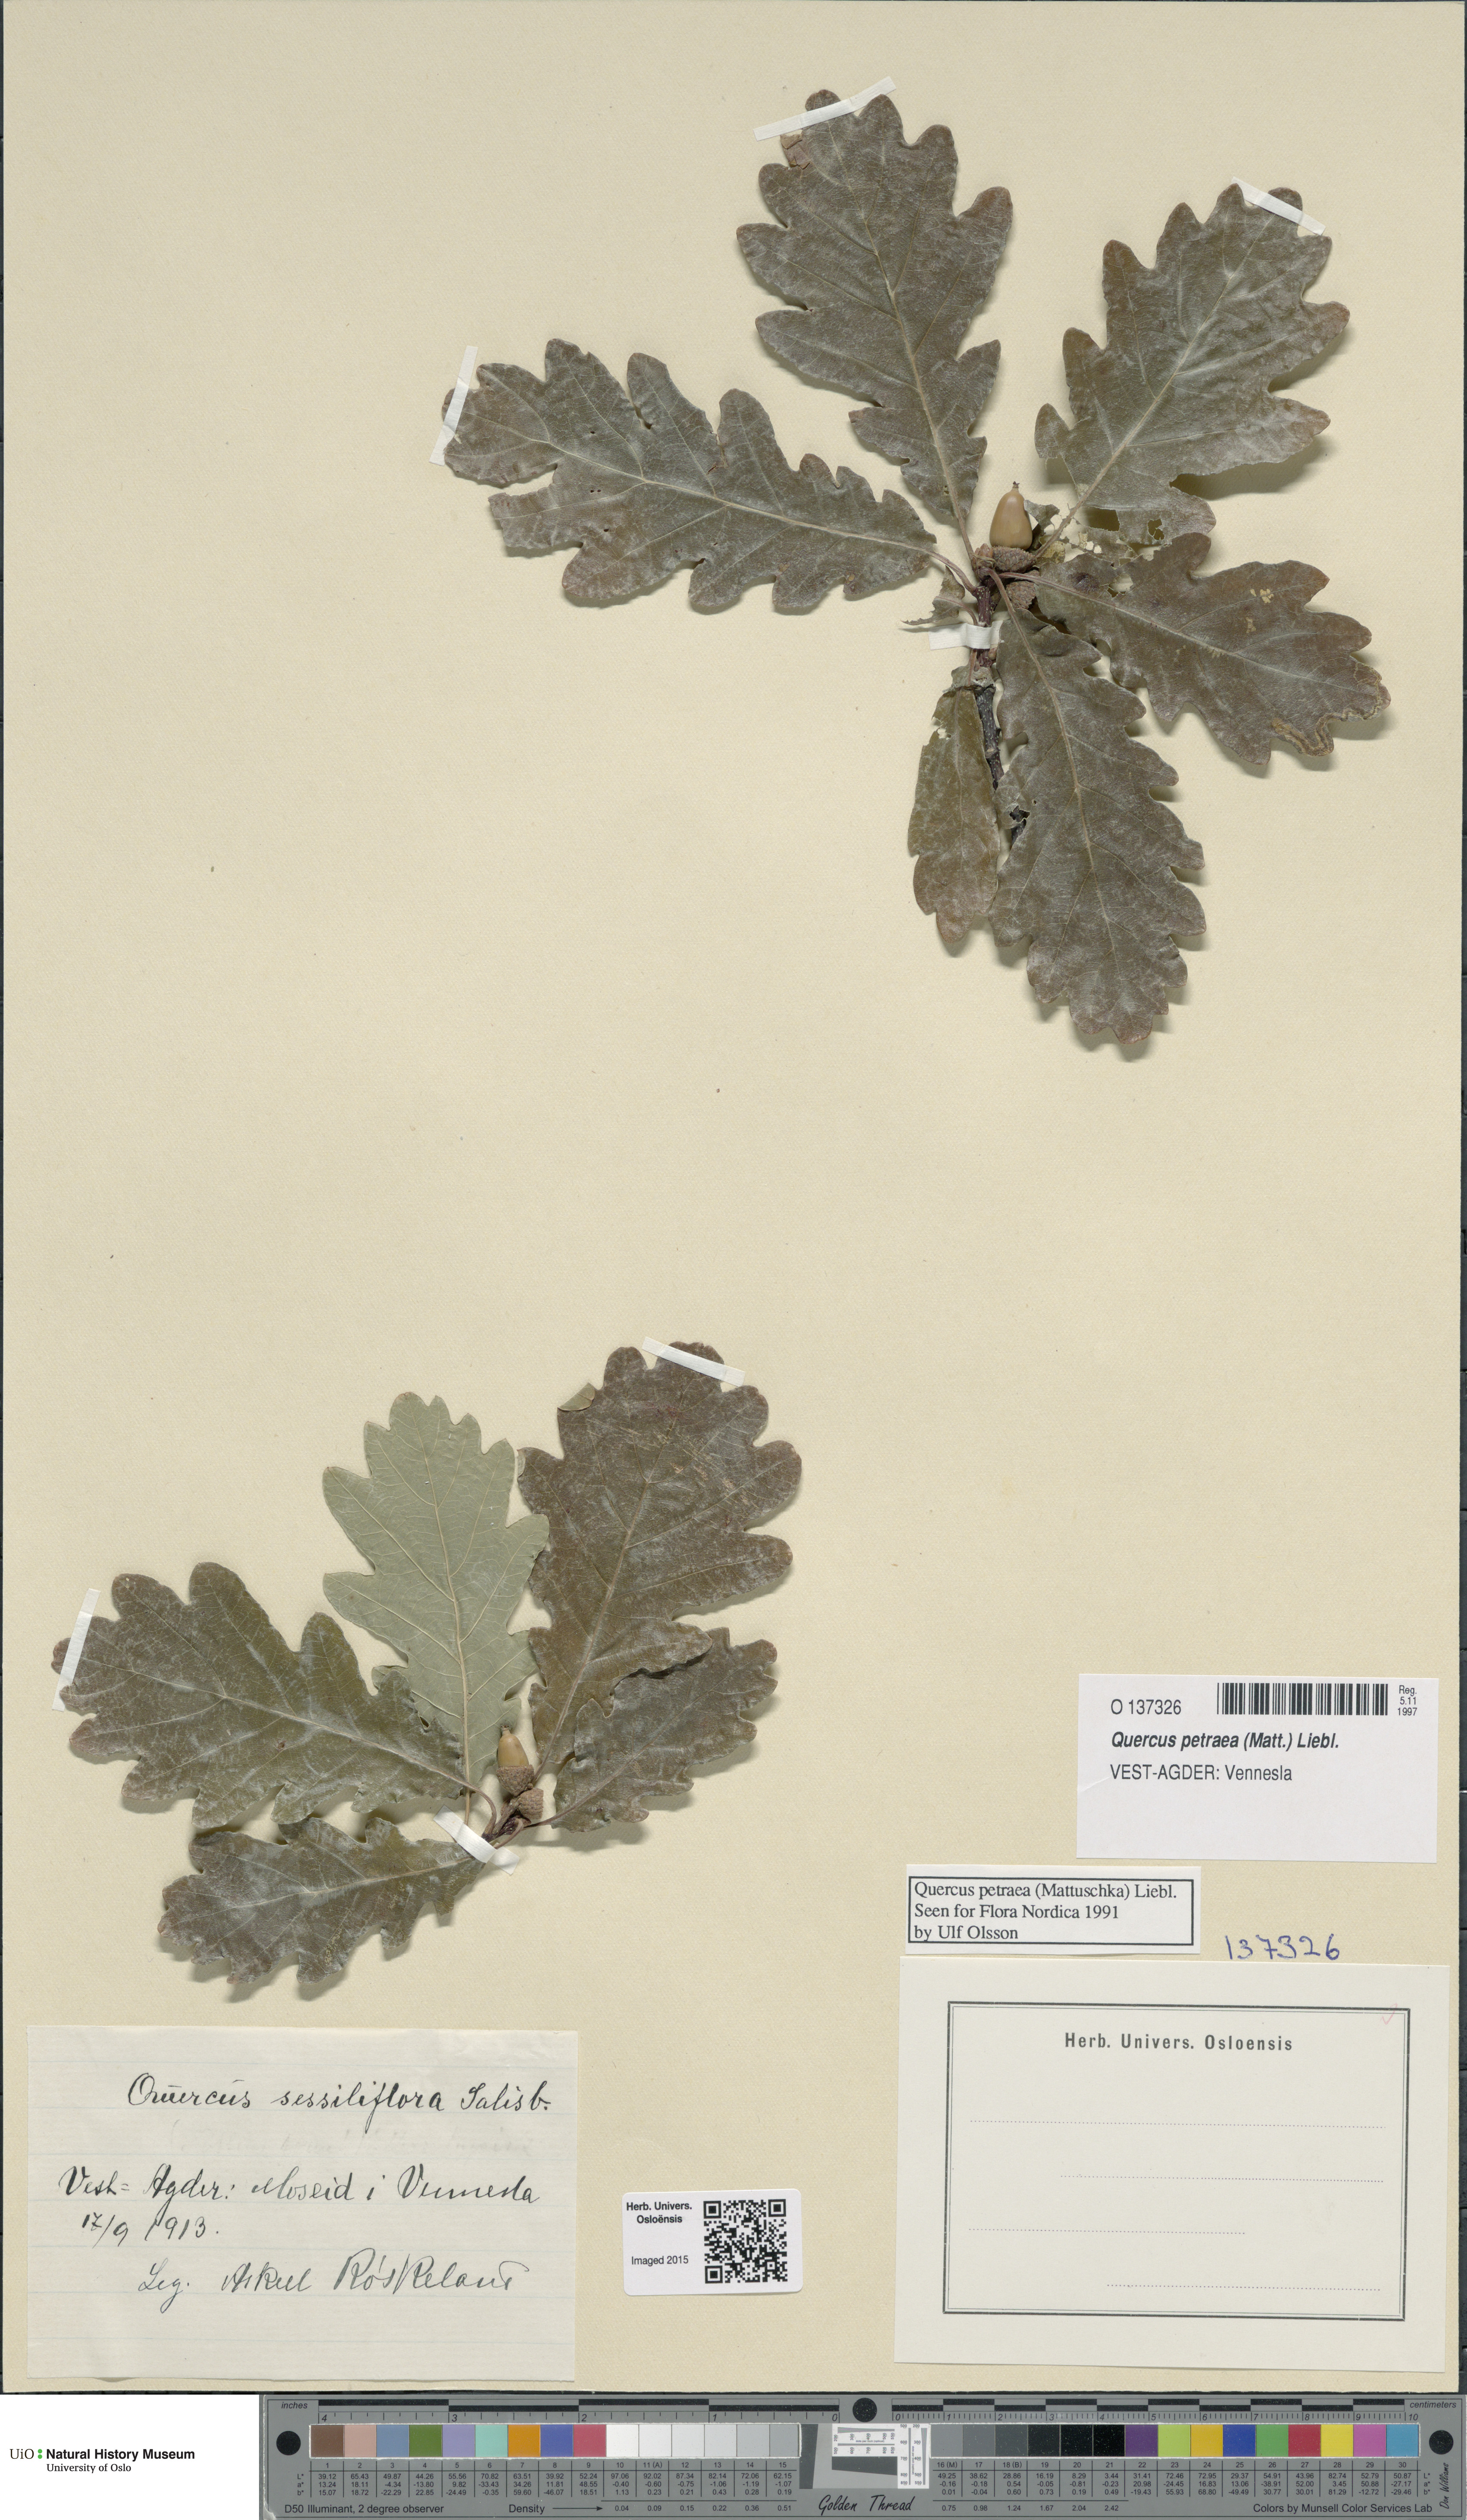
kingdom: Plantae
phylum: Tracheophyta
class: Magnoliopsida
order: Fagales
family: Fagaceae
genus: Quercus
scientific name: Quercus petraea
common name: Sessile oak
